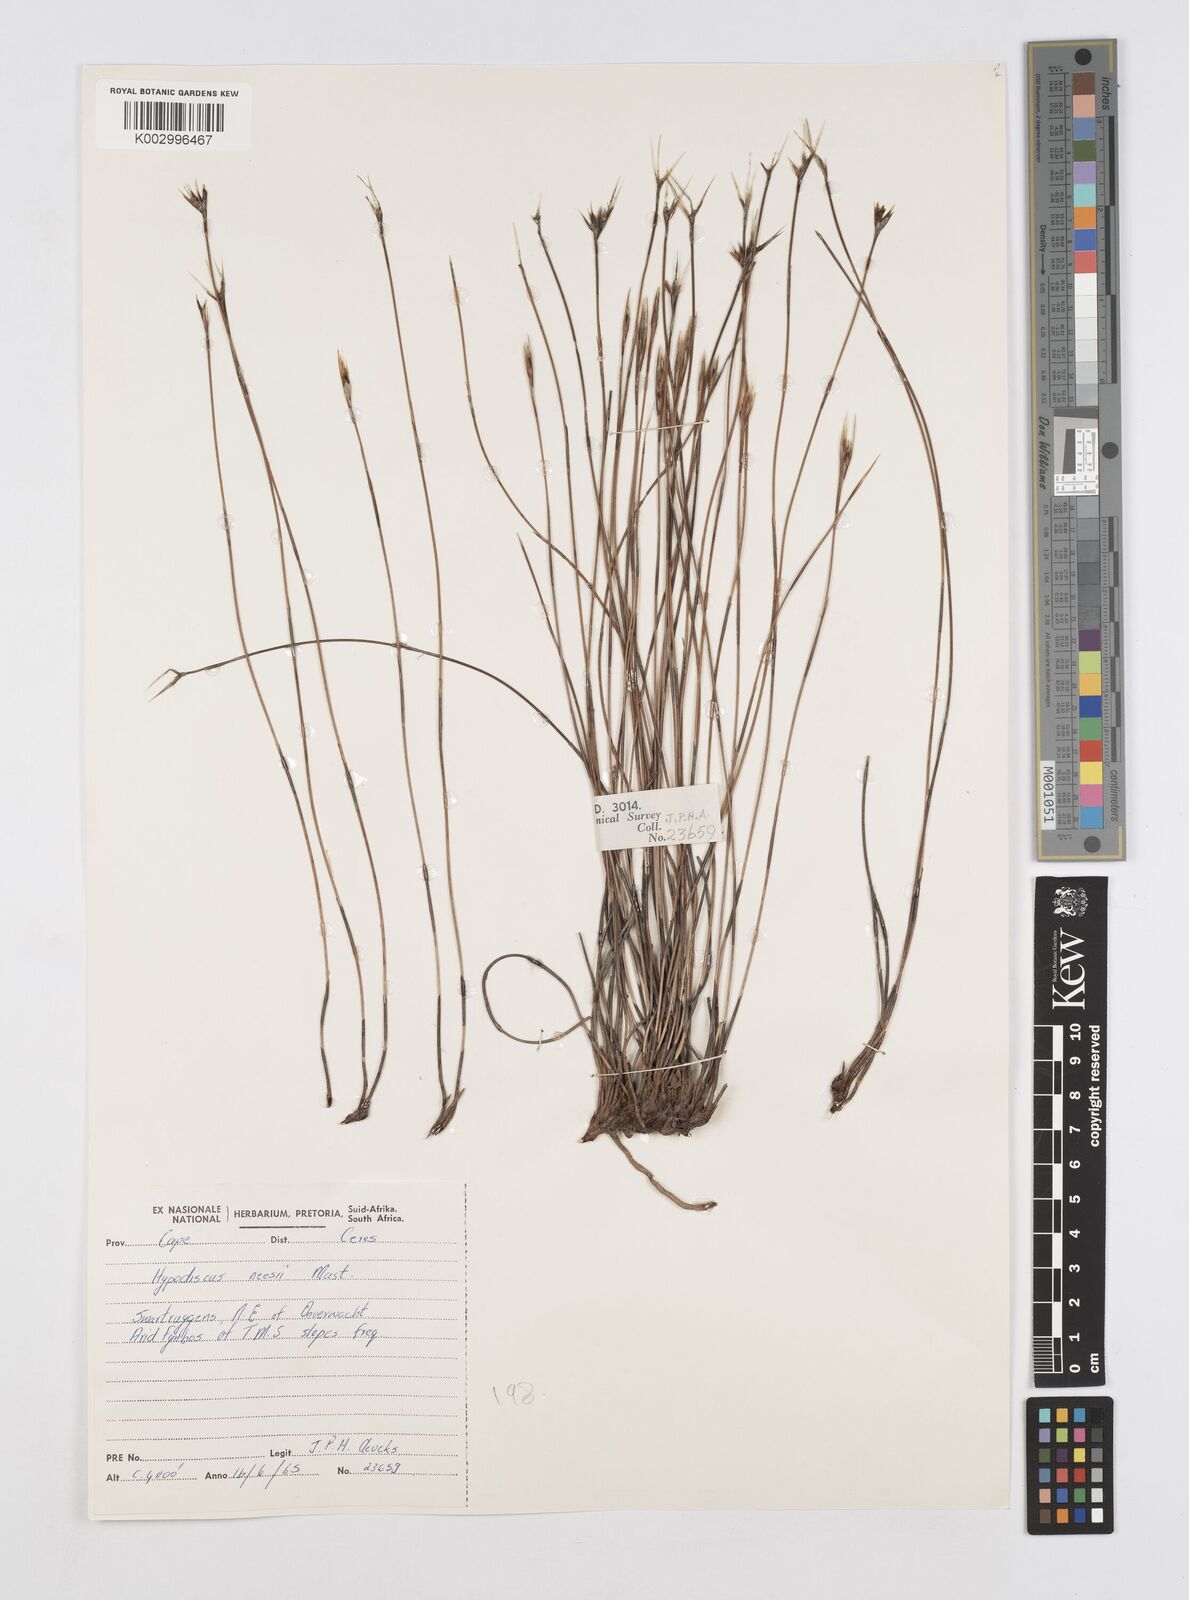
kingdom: Plantae
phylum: Tracheophyta
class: Liliopsida
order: Poales
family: Restionaceae
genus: Hypodiscus
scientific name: Hypodiscus neesii
